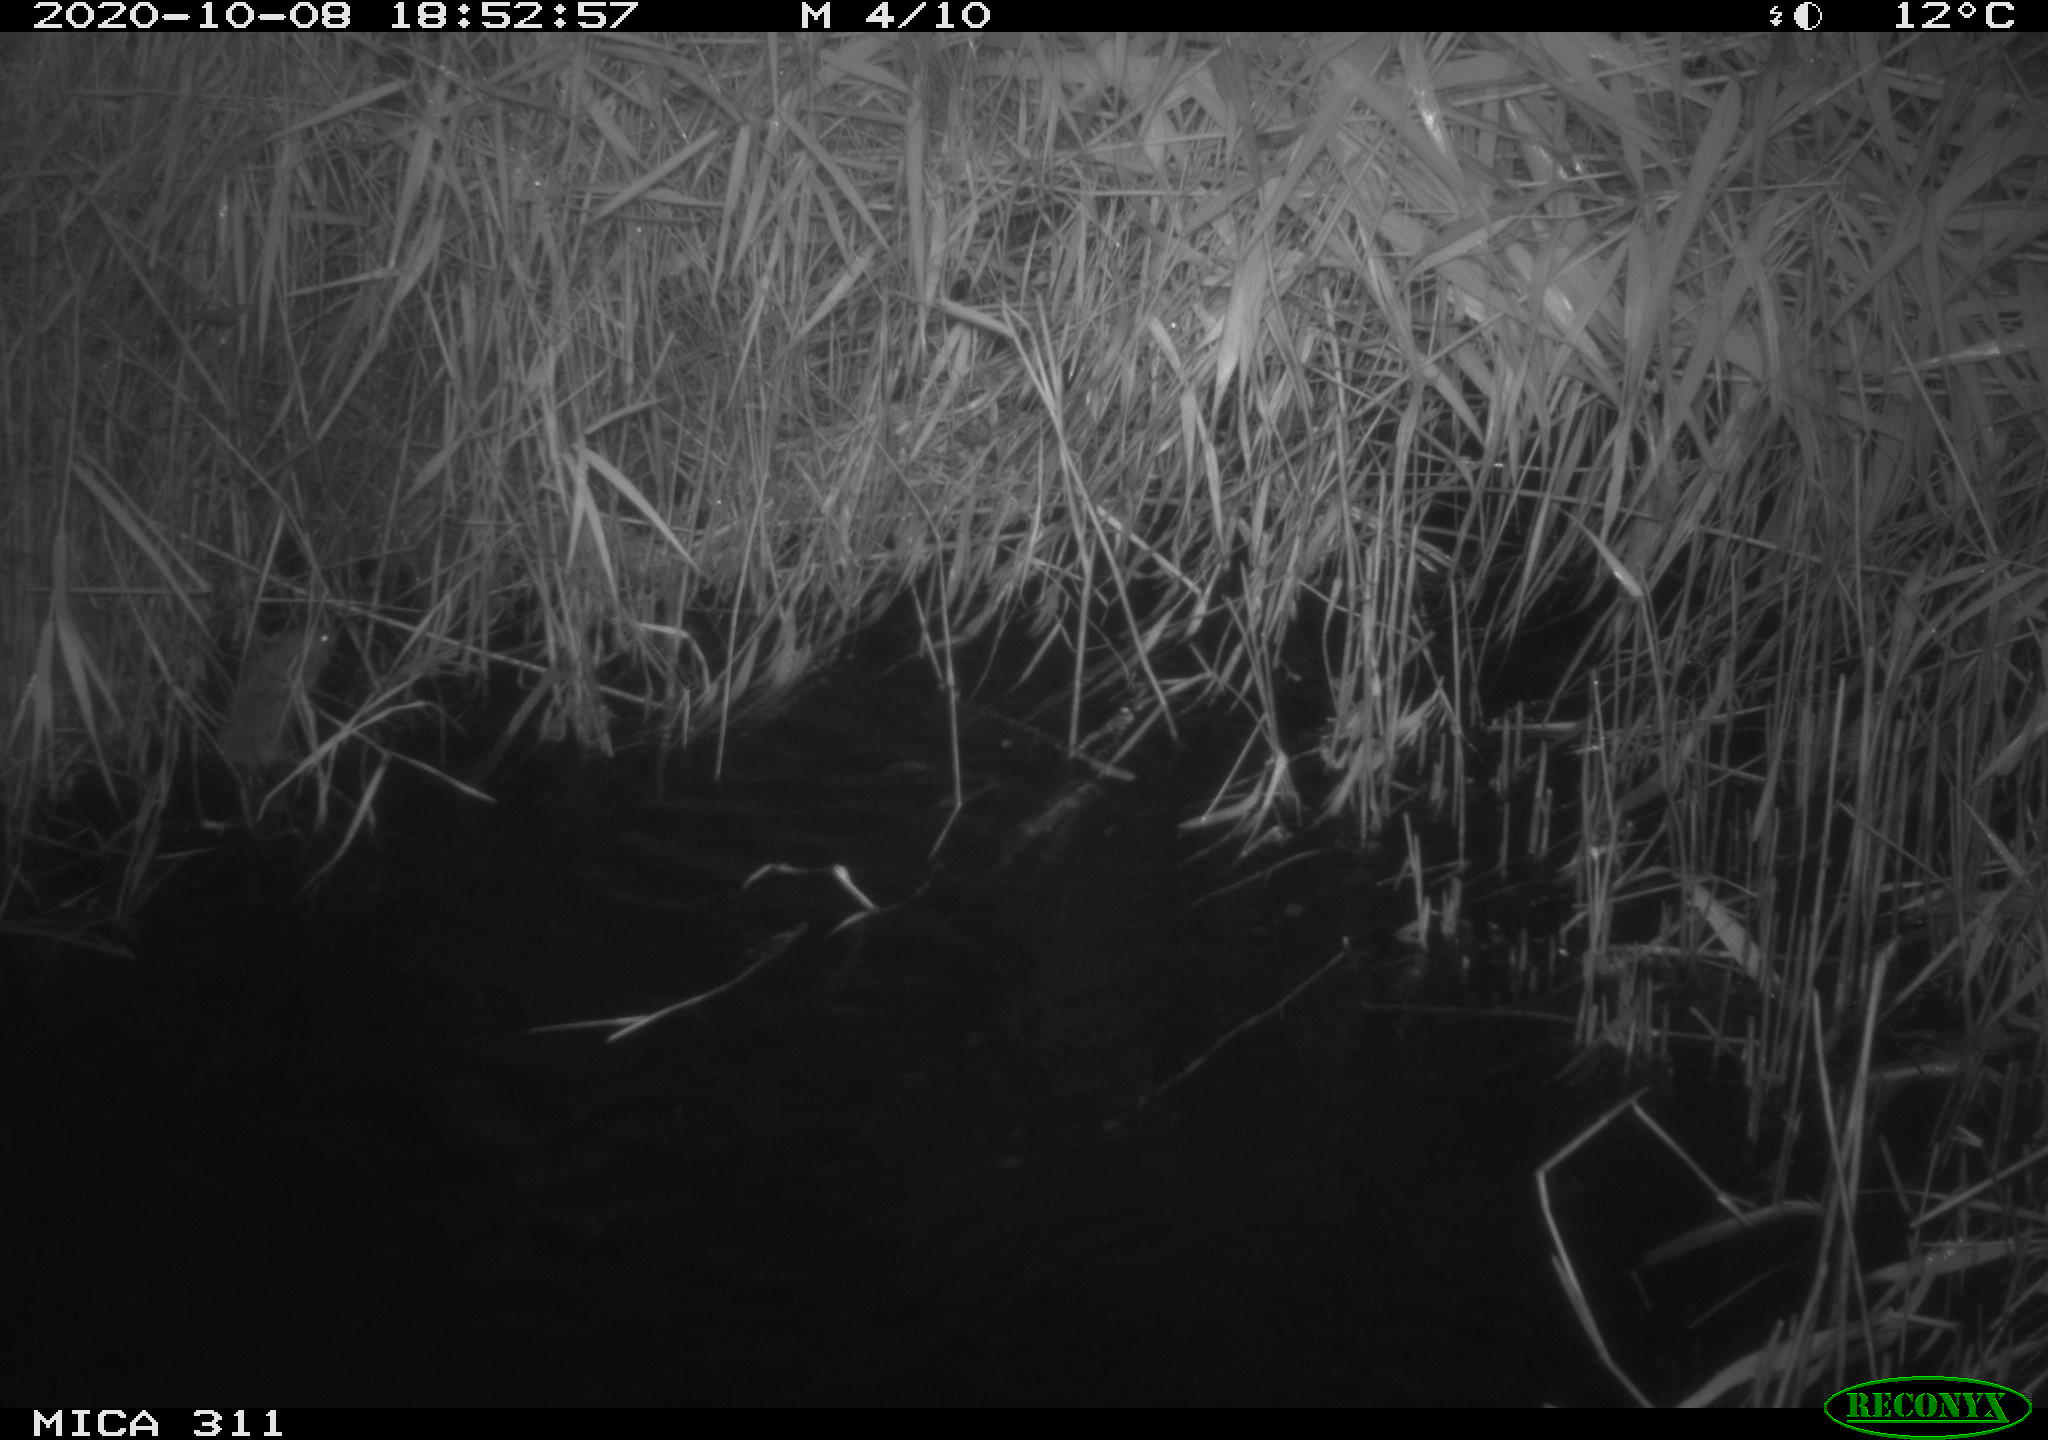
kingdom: Animalia
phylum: Chordata
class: Mammalia
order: Rodentia
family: Muridae
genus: Rattus
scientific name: Rattus norvegicus
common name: Brown rat
